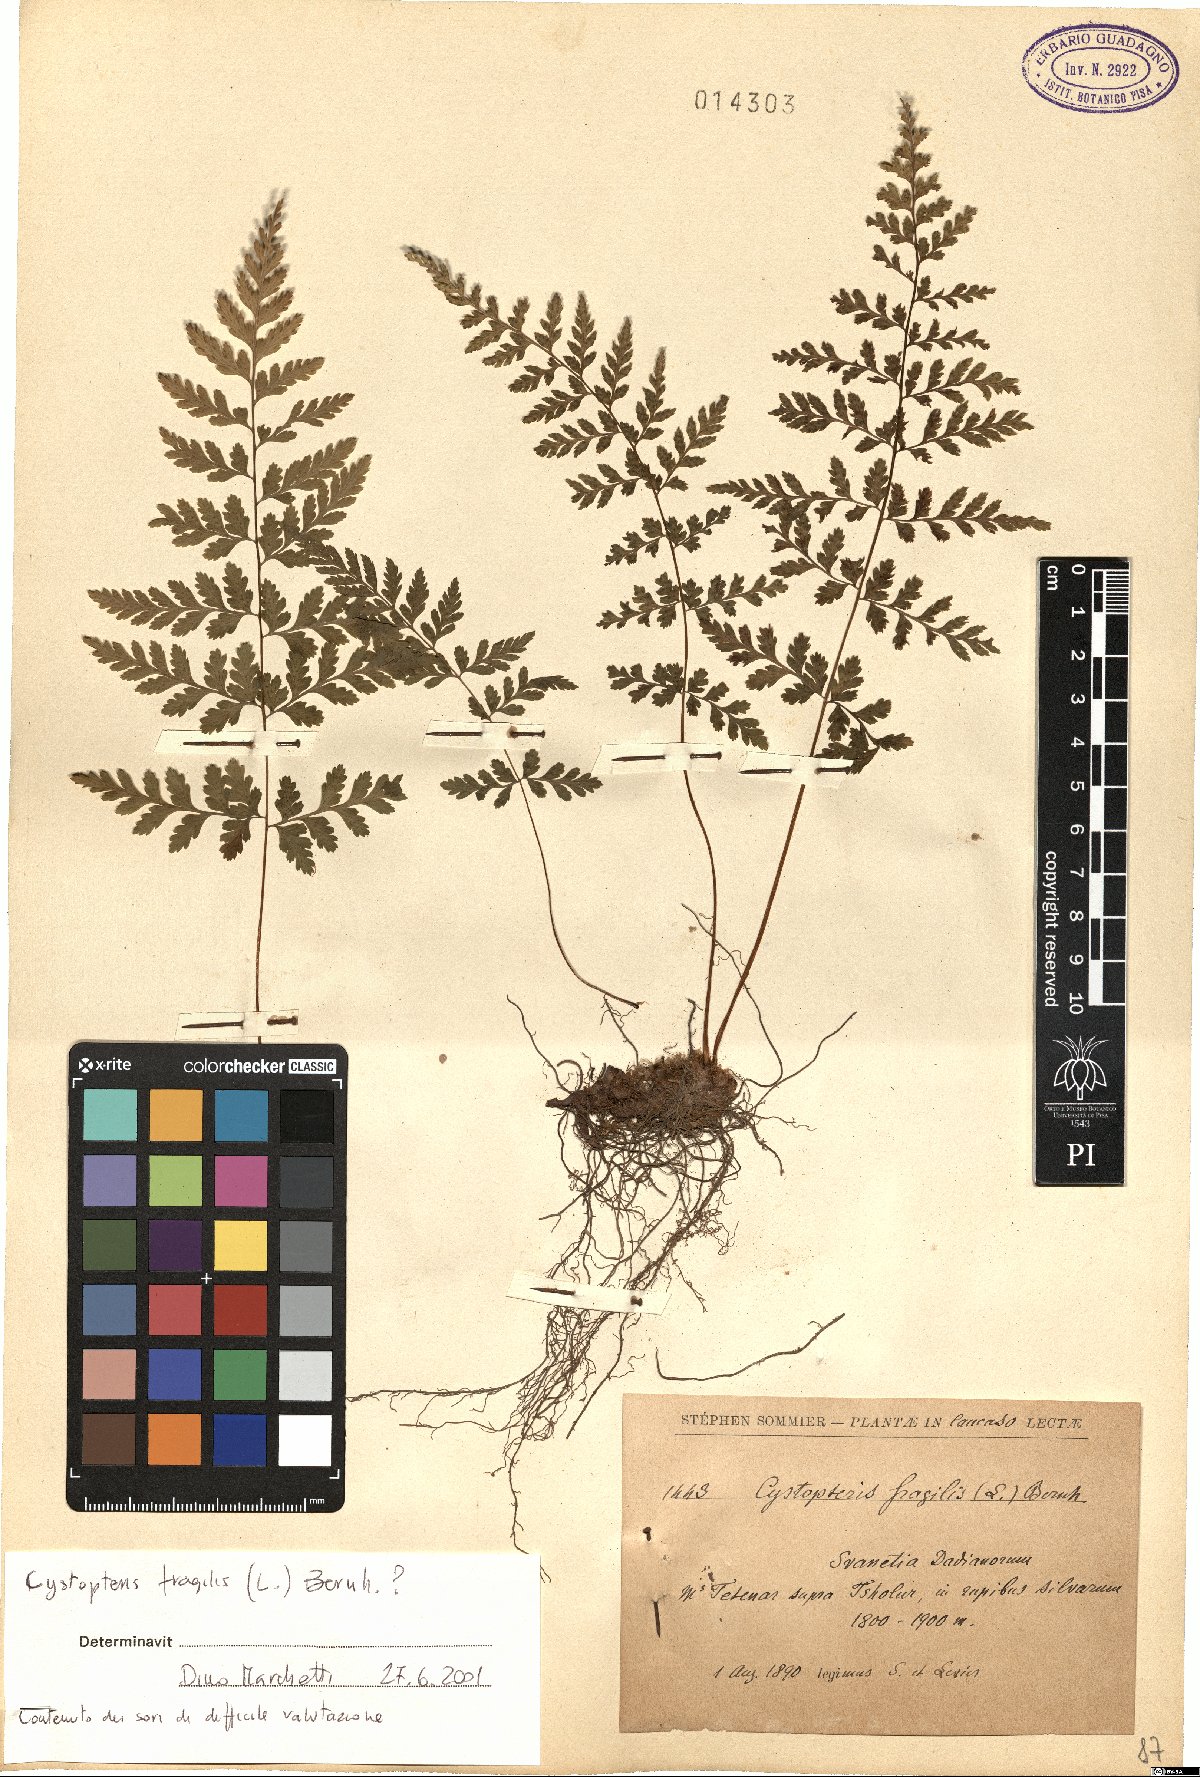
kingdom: Plantae
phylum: Tracheophyta
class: Polypodiopsida
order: Polypodiales
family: Cystopteridaceae
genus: Cystopteris
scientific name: Cystopteris fragilis
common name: Brittle bladder fern
